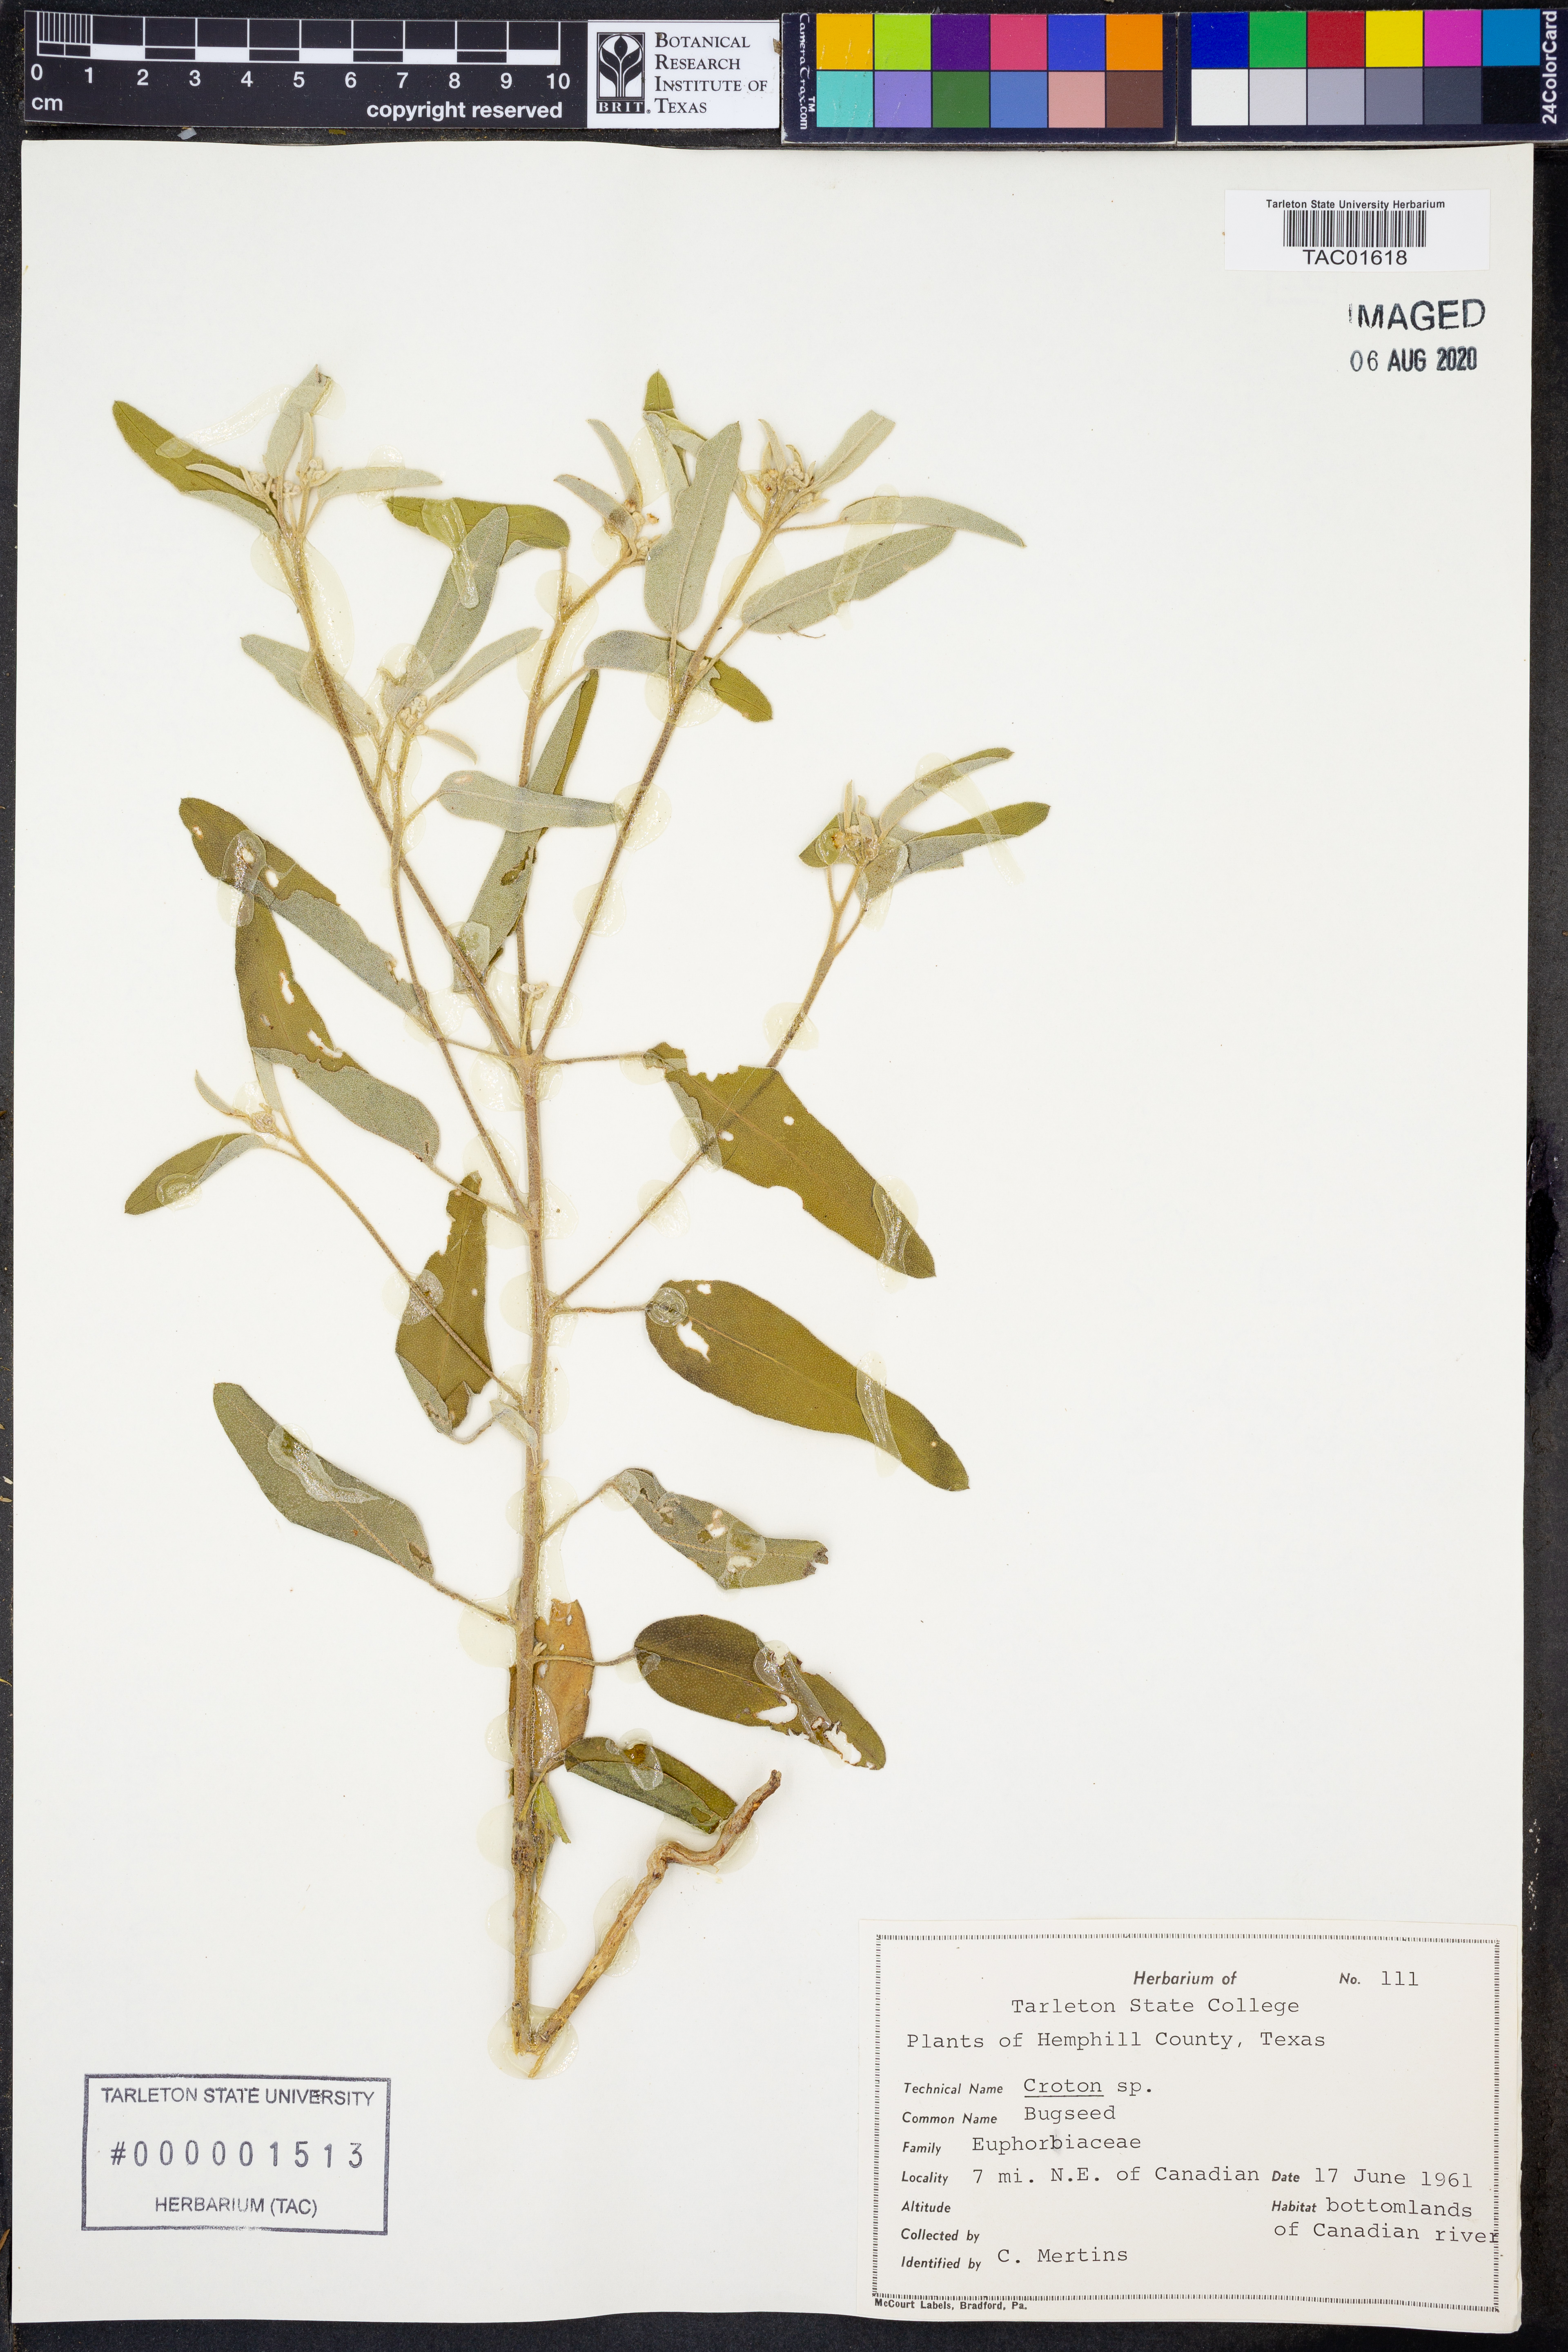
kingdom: Plantae
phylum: Tracheophyta
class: Magnoliopsida
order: Malpighiales
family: Euphorbiaceae
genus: Croton
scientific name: Croton
